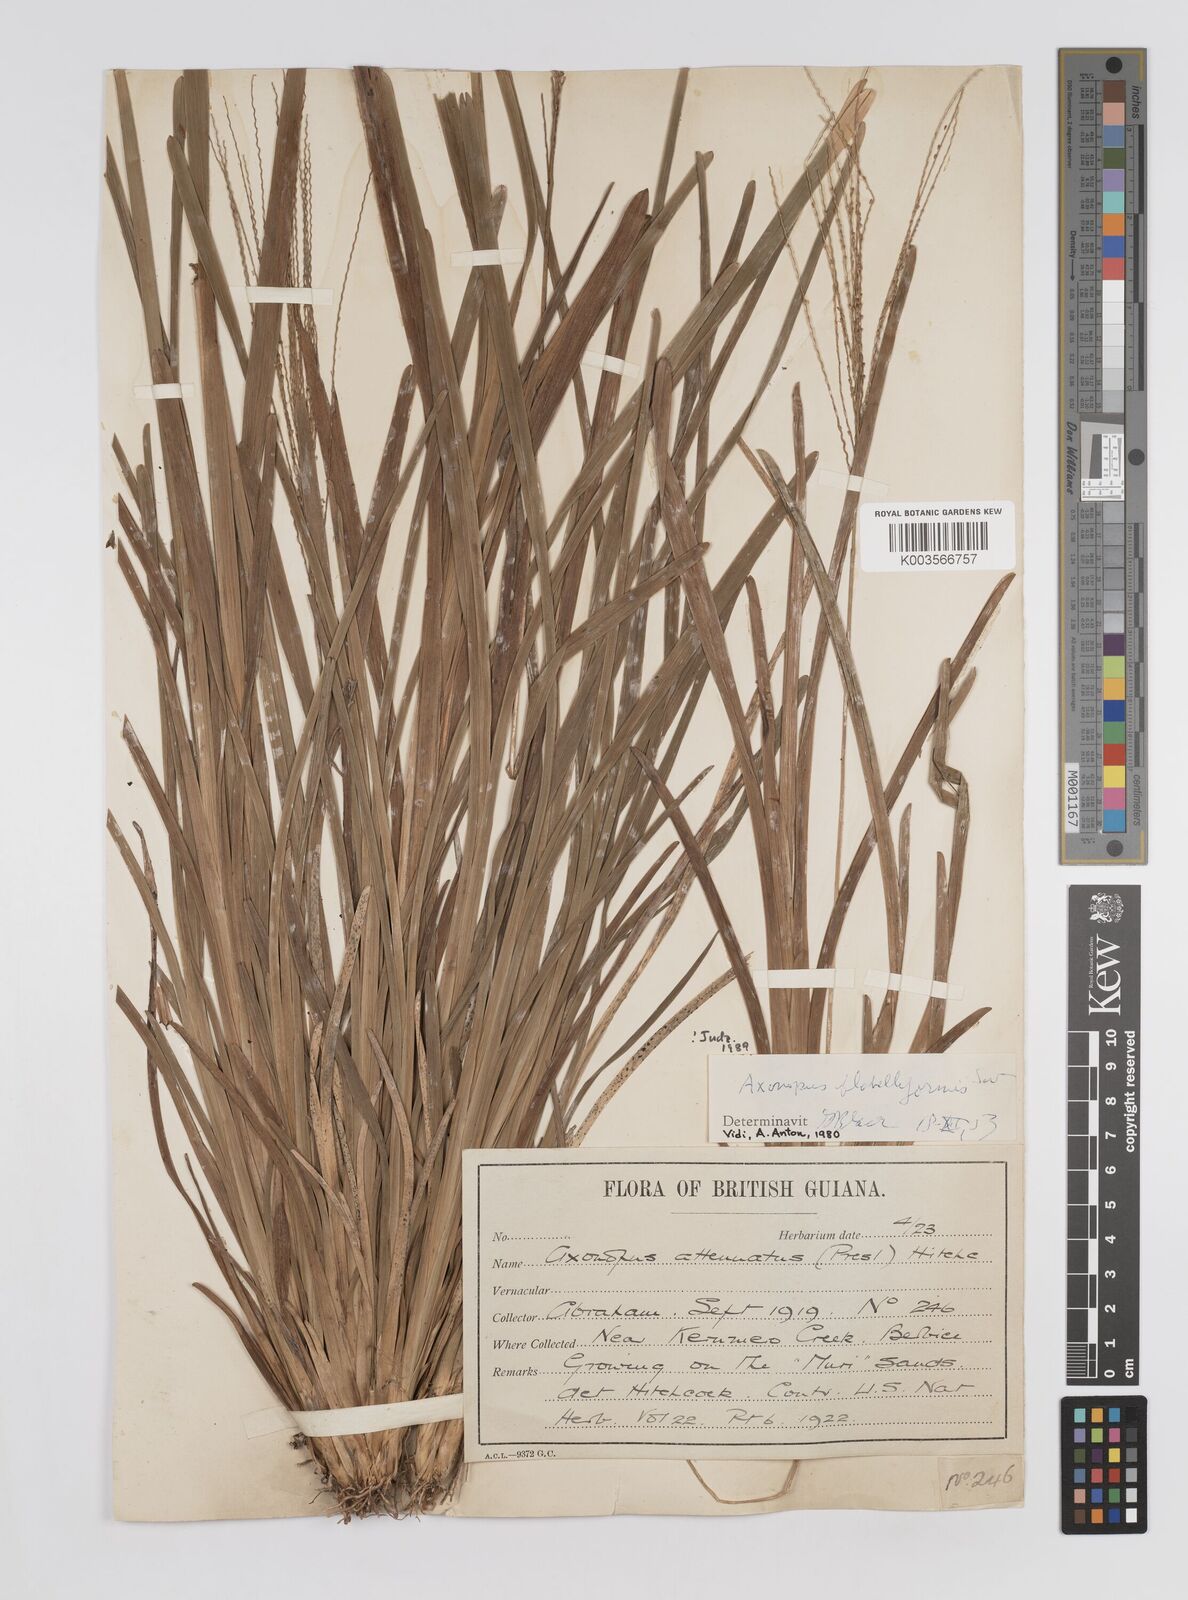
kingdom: Plantae
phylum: Tracheophyta
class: Liliopsida
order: Poales
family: Poaceae
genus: Axonopus
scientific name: Axonopus flabelliformis
